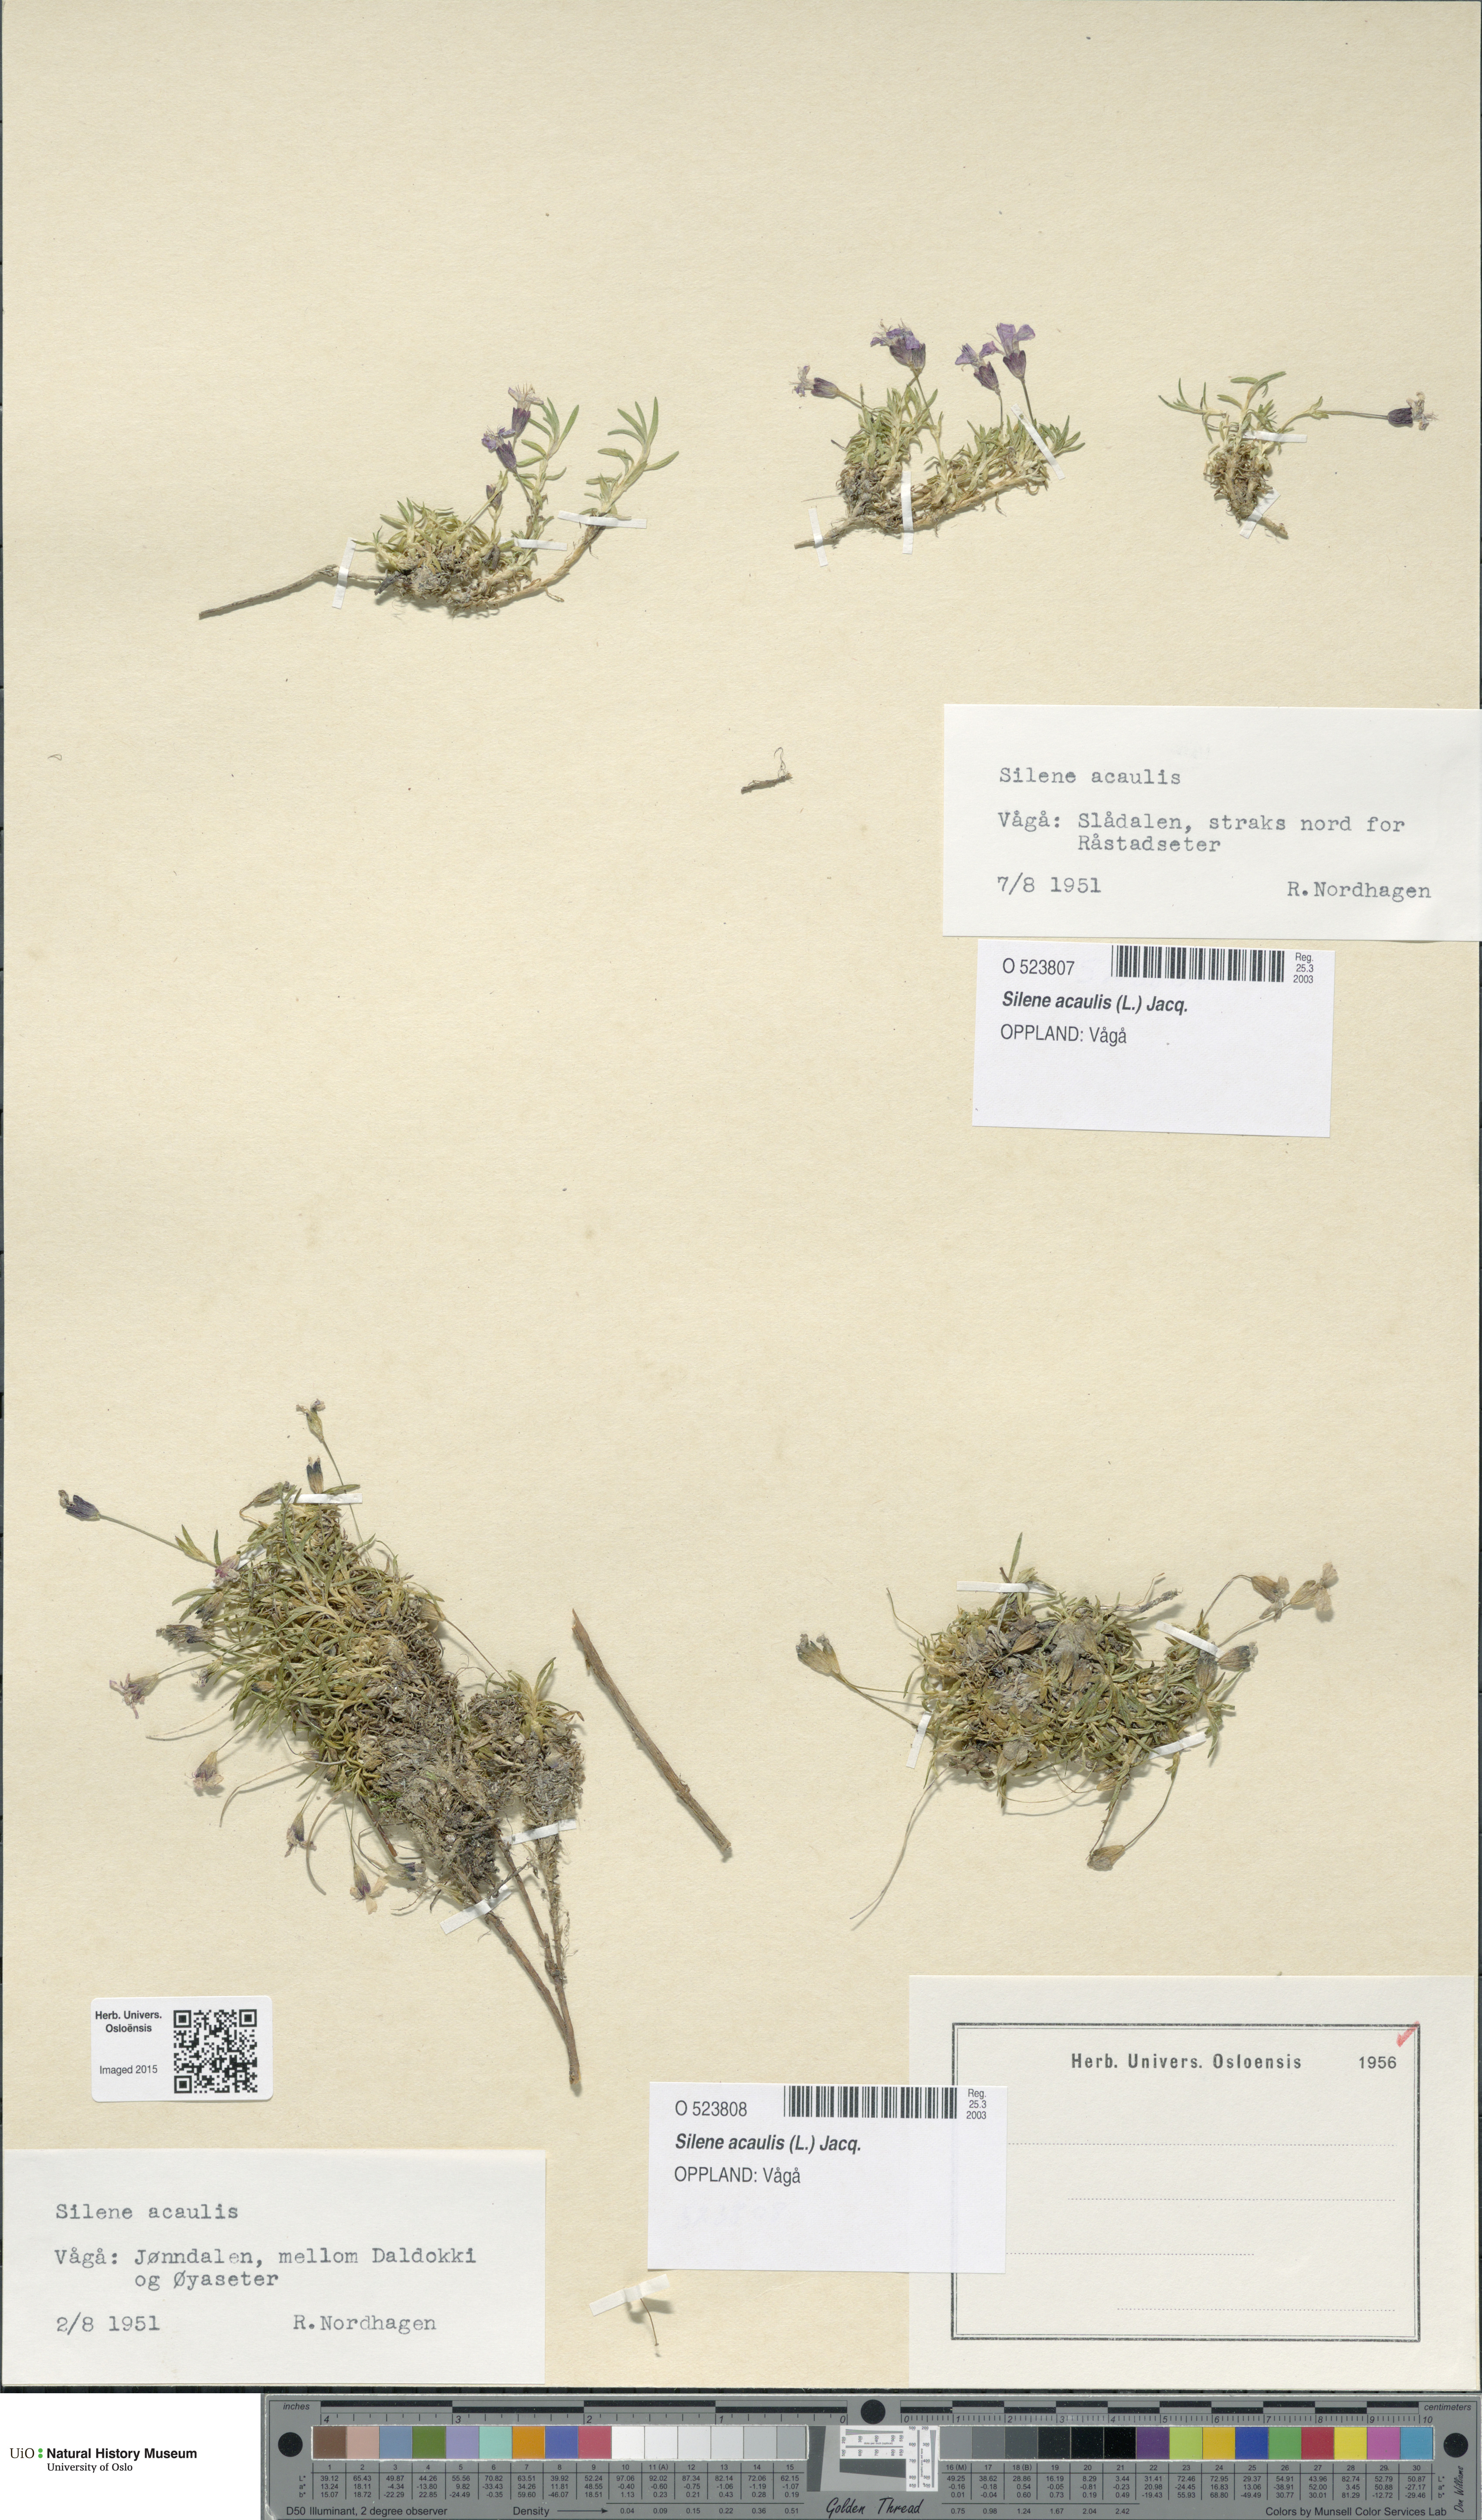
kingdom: Plantae
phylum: Tracheophyta
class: Magnoliopsida
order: Caryophyllales
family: Caryophyllaceae
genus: Silene
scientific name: Silene acaulis
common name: Moss campion
